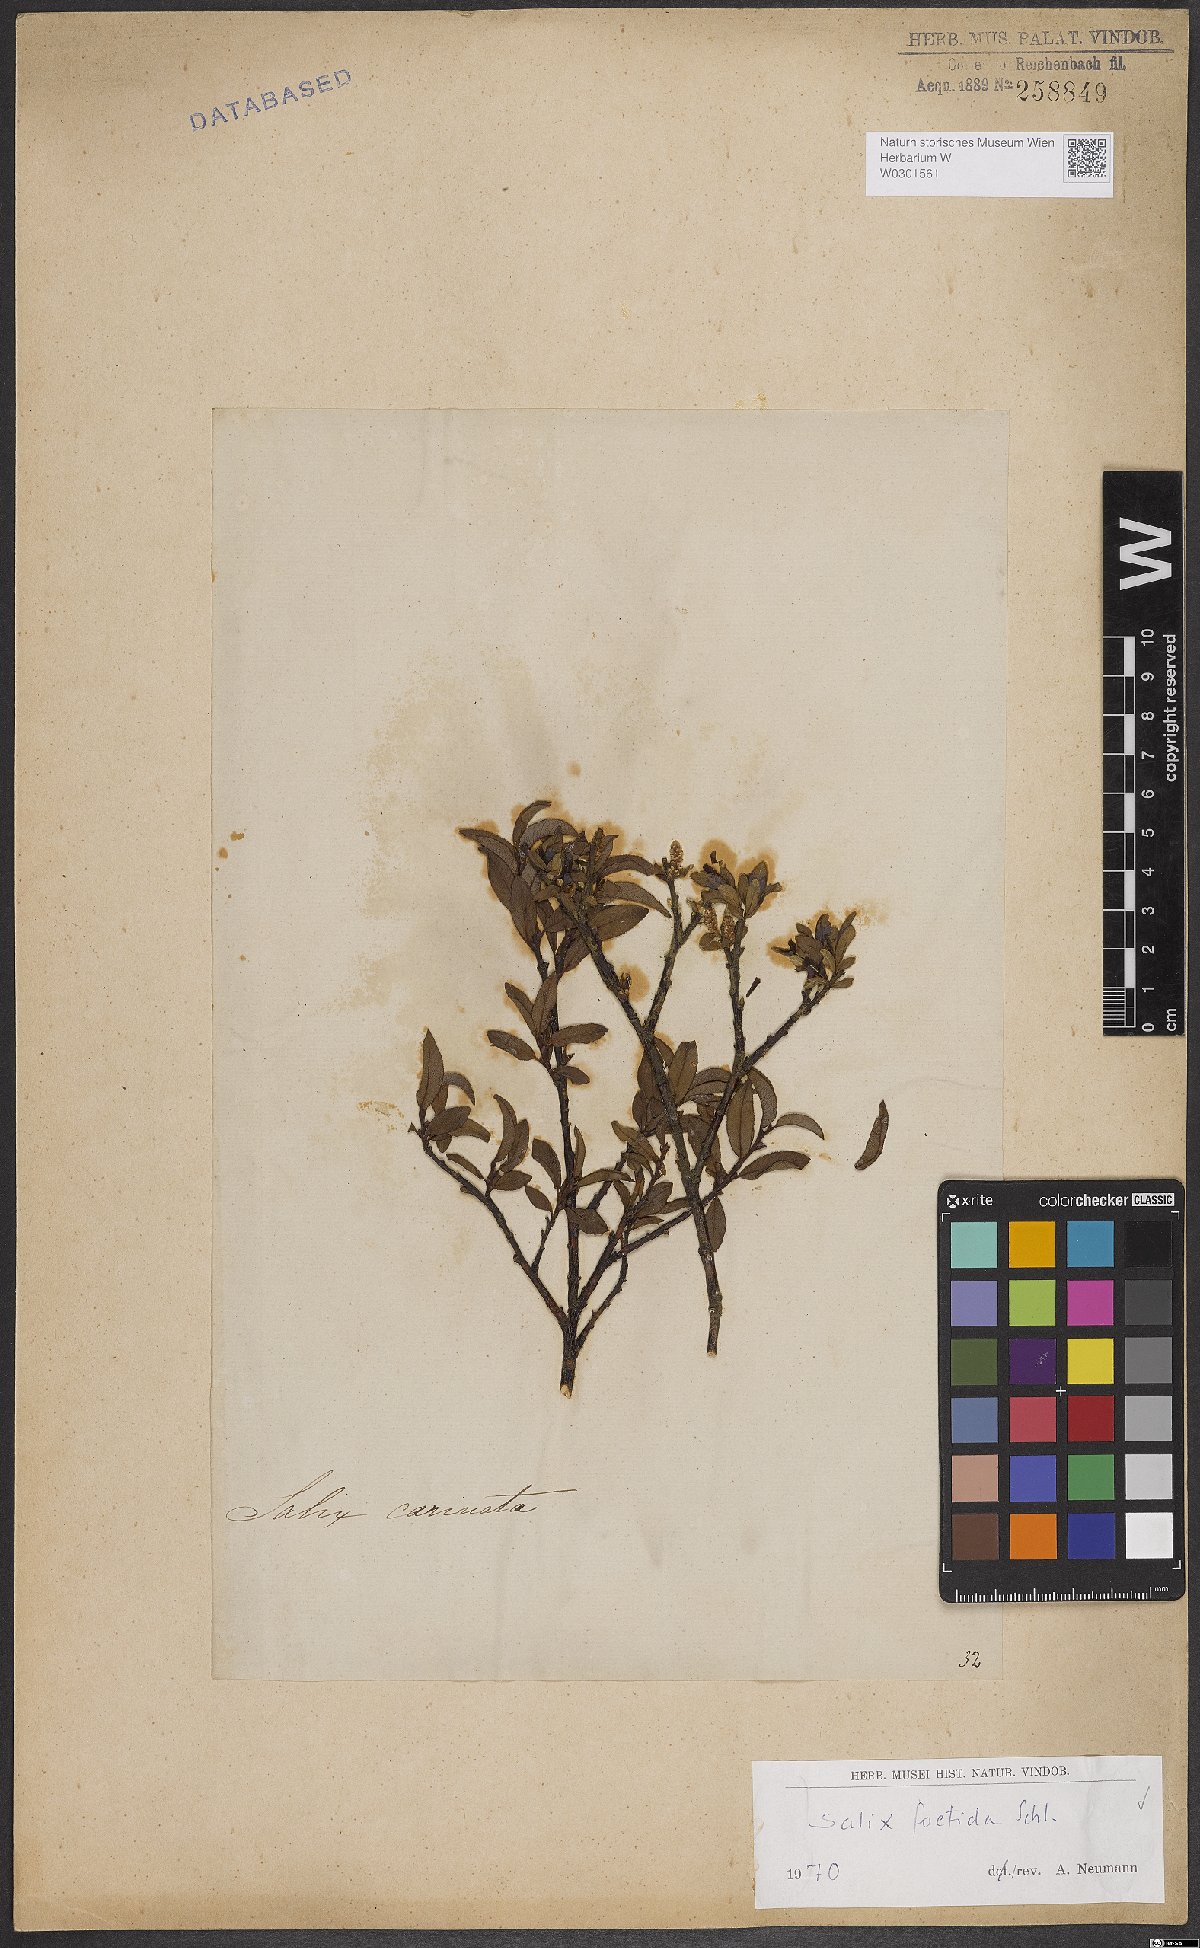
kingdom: Plantae
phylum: Tracheophyta
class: Magnoliopsida
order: Malpighiales
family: Salicaceae
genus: Salix
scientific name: Salix foetida
